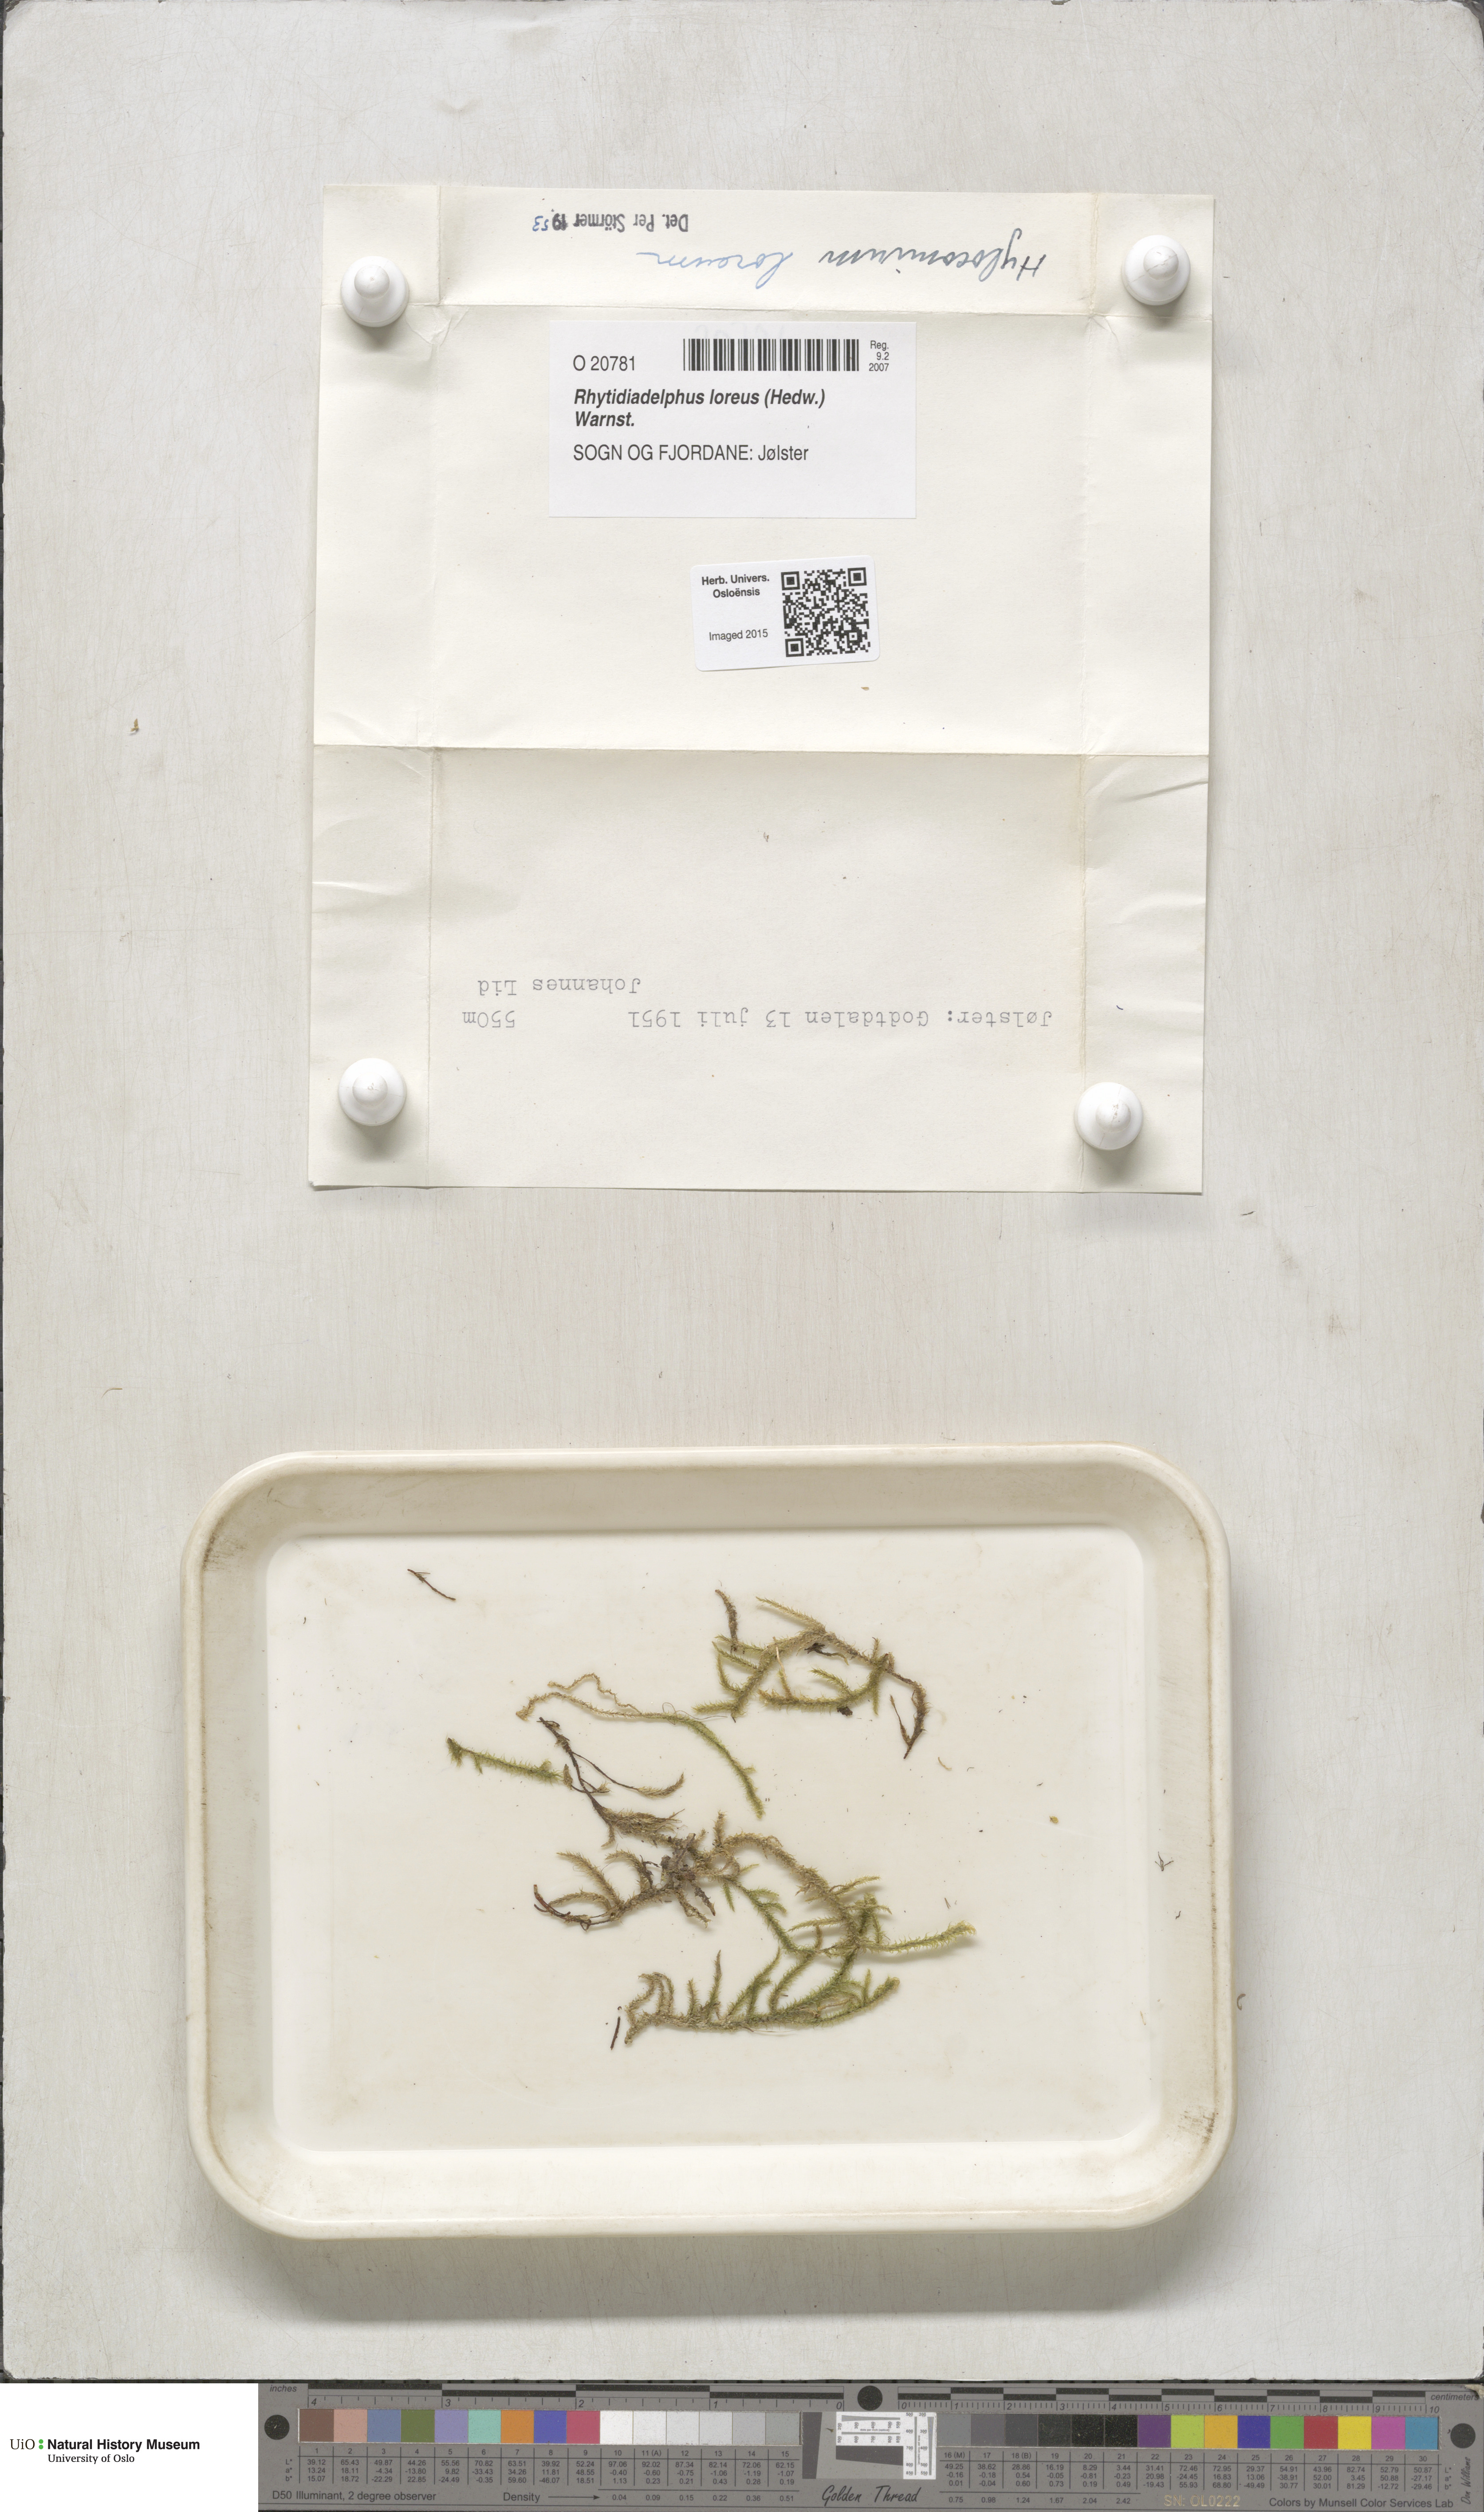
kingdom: Plantae
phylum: Bryophyta
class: Bryopsida
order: Hypnales
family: Hylocomiaceae
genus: Rhytidiadelphus
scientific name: Rhytidiadelphus loreus
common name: Lanky moss
